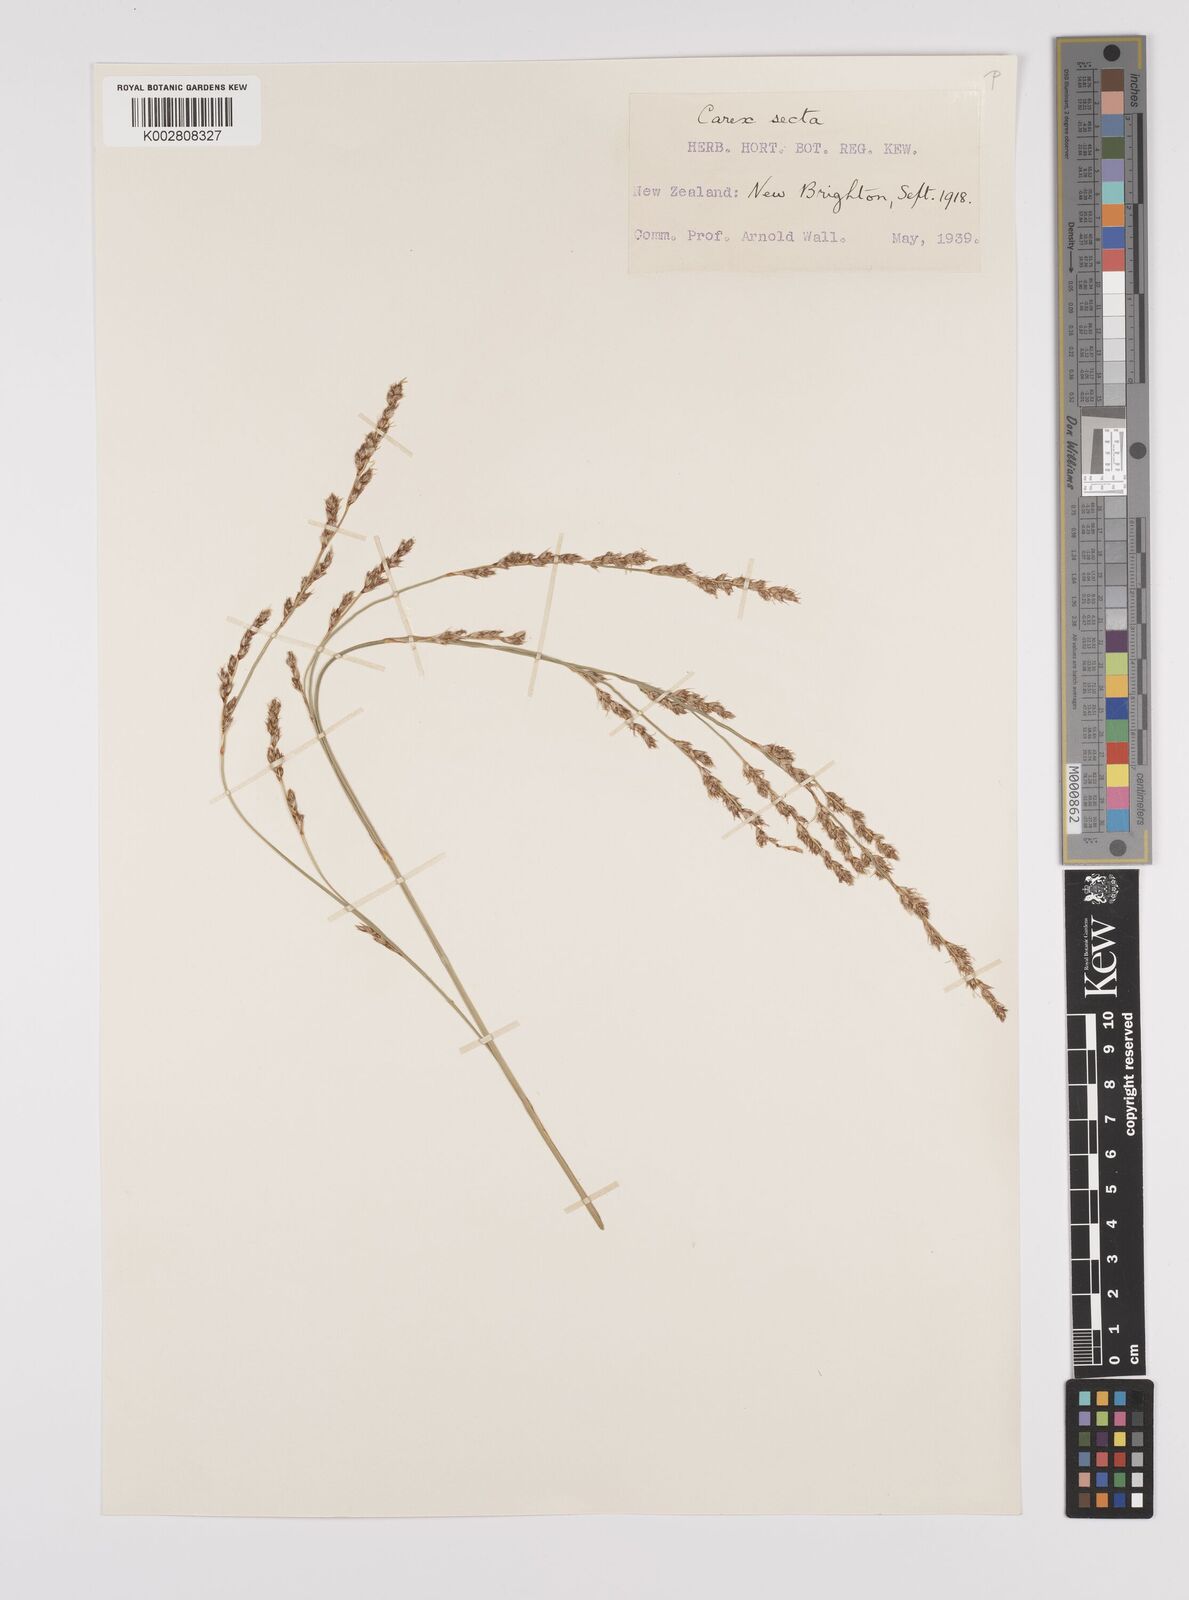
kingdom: Plantae
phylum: Tracheophyta
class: Liliopsida
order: Poales
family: Cyperaceae
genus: Carex
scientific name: Carex appressa
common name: Tussock sedge
